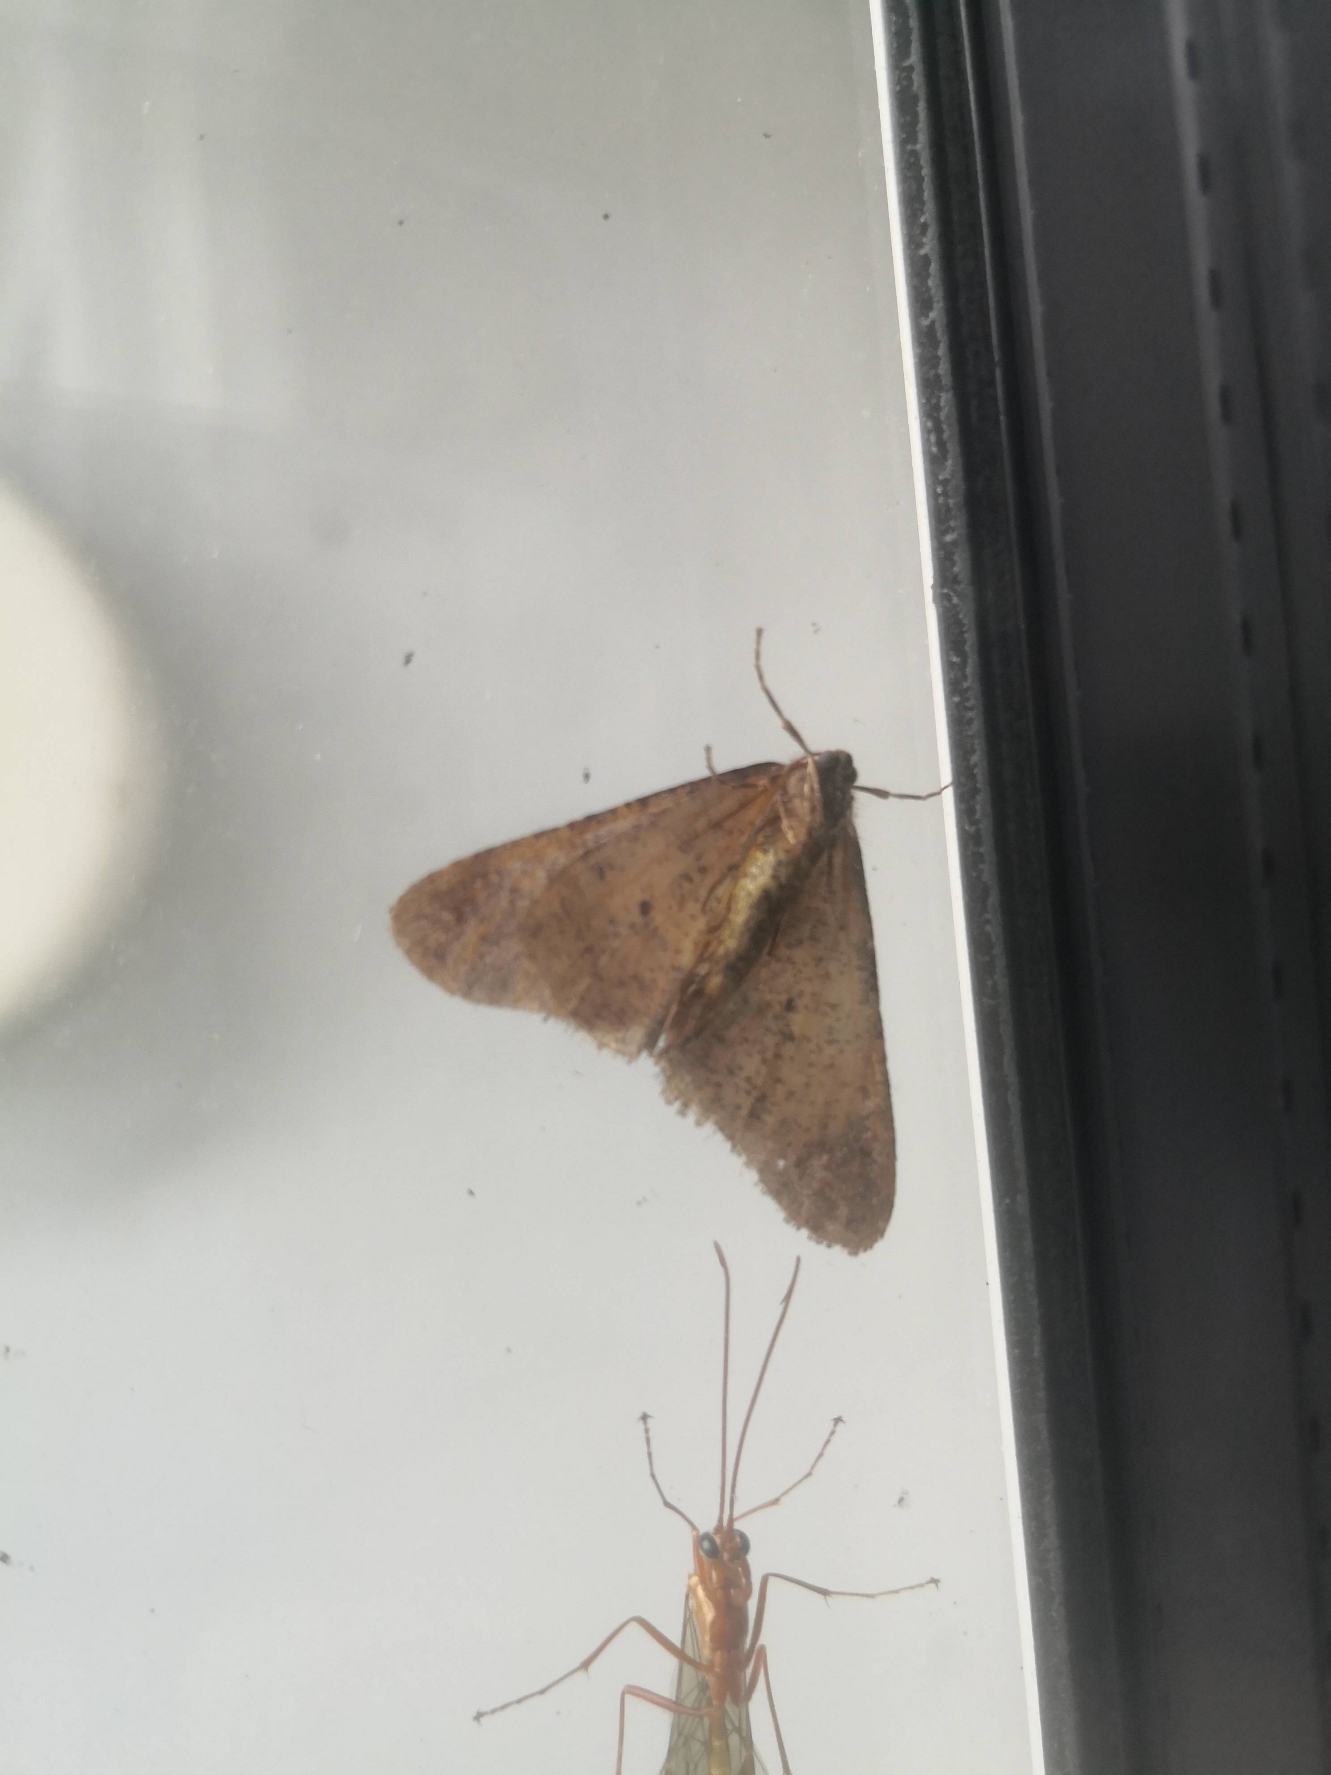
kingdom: Animalia
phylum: Arthropoda
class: Insecta
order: Lepidoptera
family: Geometridae
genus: Erannis
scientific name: Erannis defoliaria
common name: Stor frostmåler
